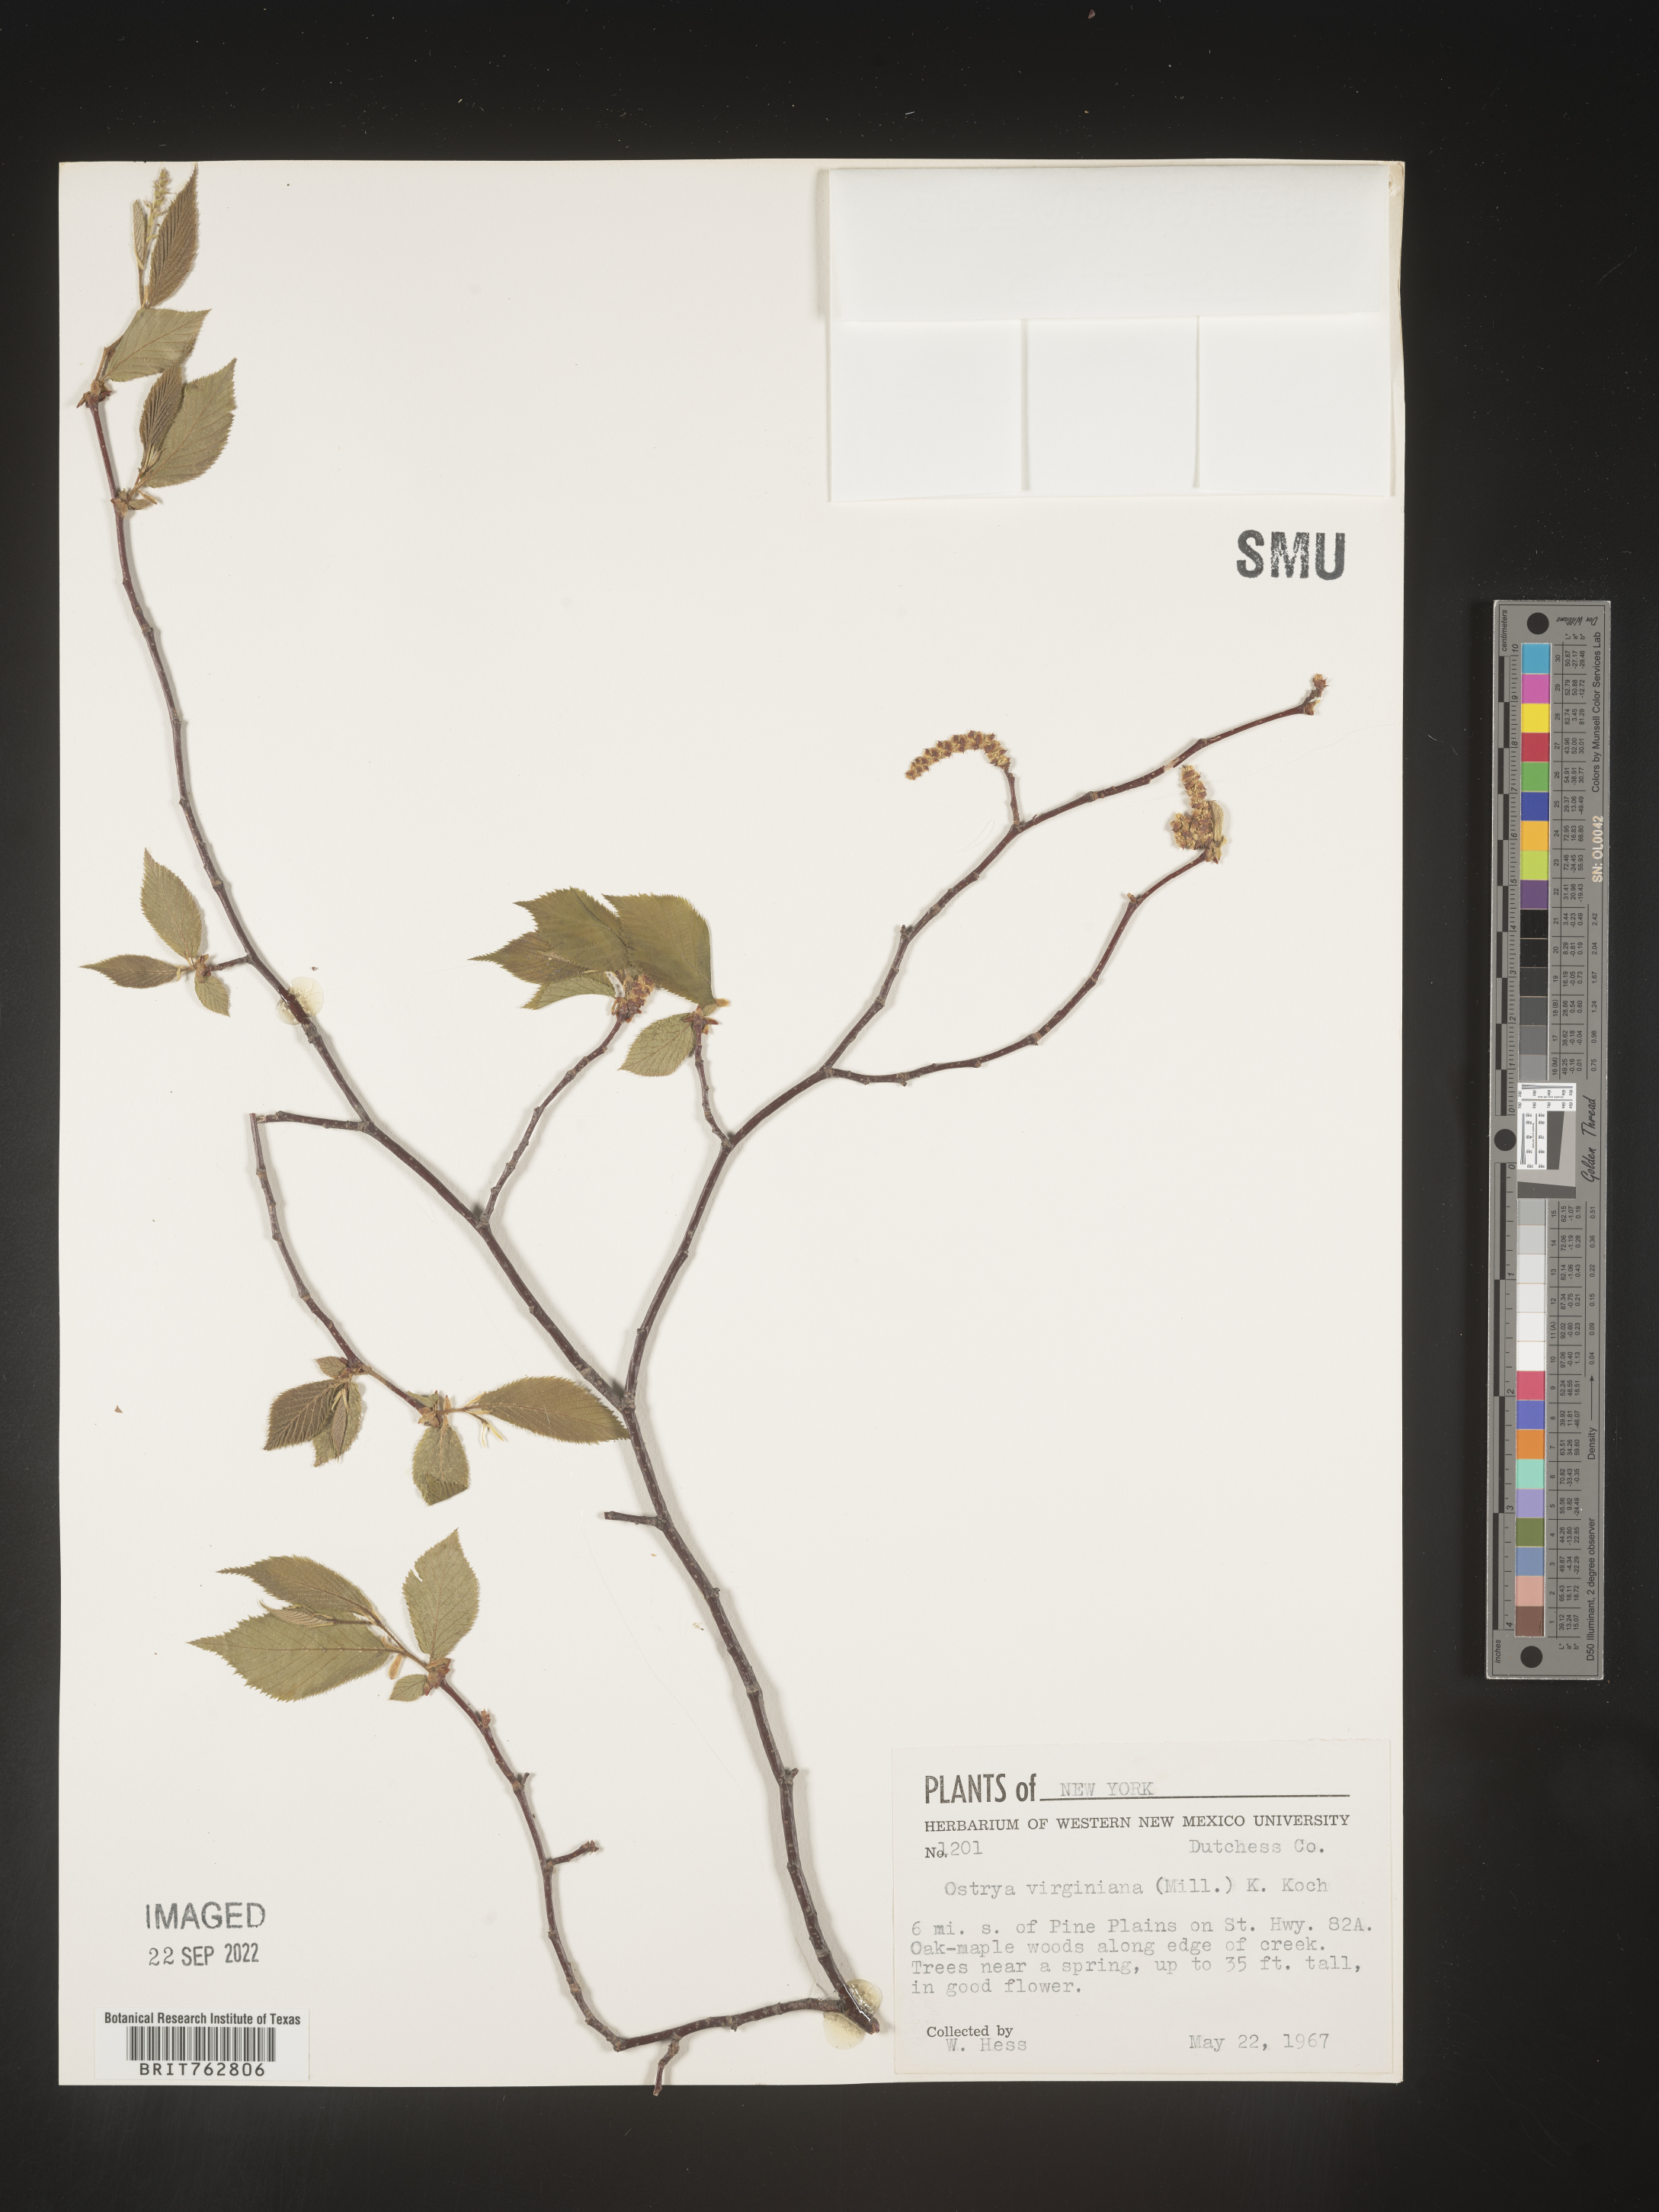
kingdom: Plantae
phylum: Tracheophyta
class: Magnoliopsida
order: Fagales
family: Betulaceae
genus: Ostrya
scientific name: Ostrya virginiana
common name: Ironwood
